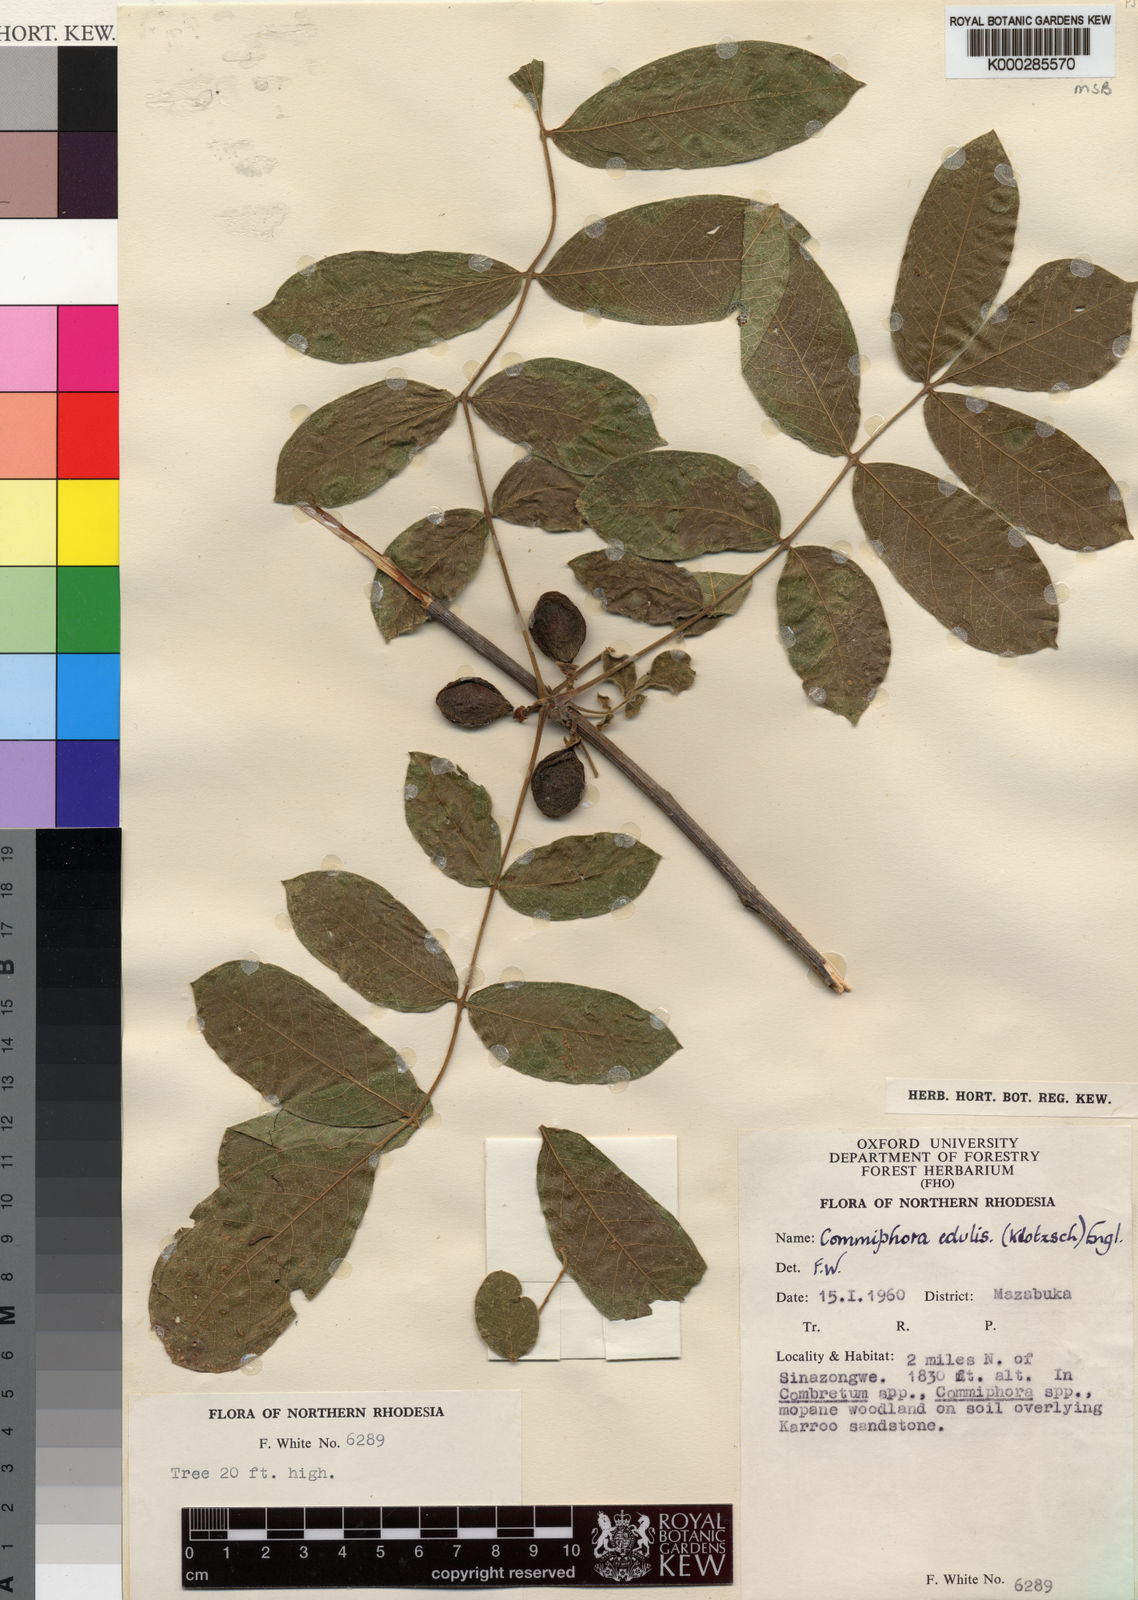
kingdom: Plantae
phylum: Tracheophyta
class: Magnoliopsida
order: Sapindales
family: Burseraceae
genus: Commiphora
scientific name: Commiphora edulis
